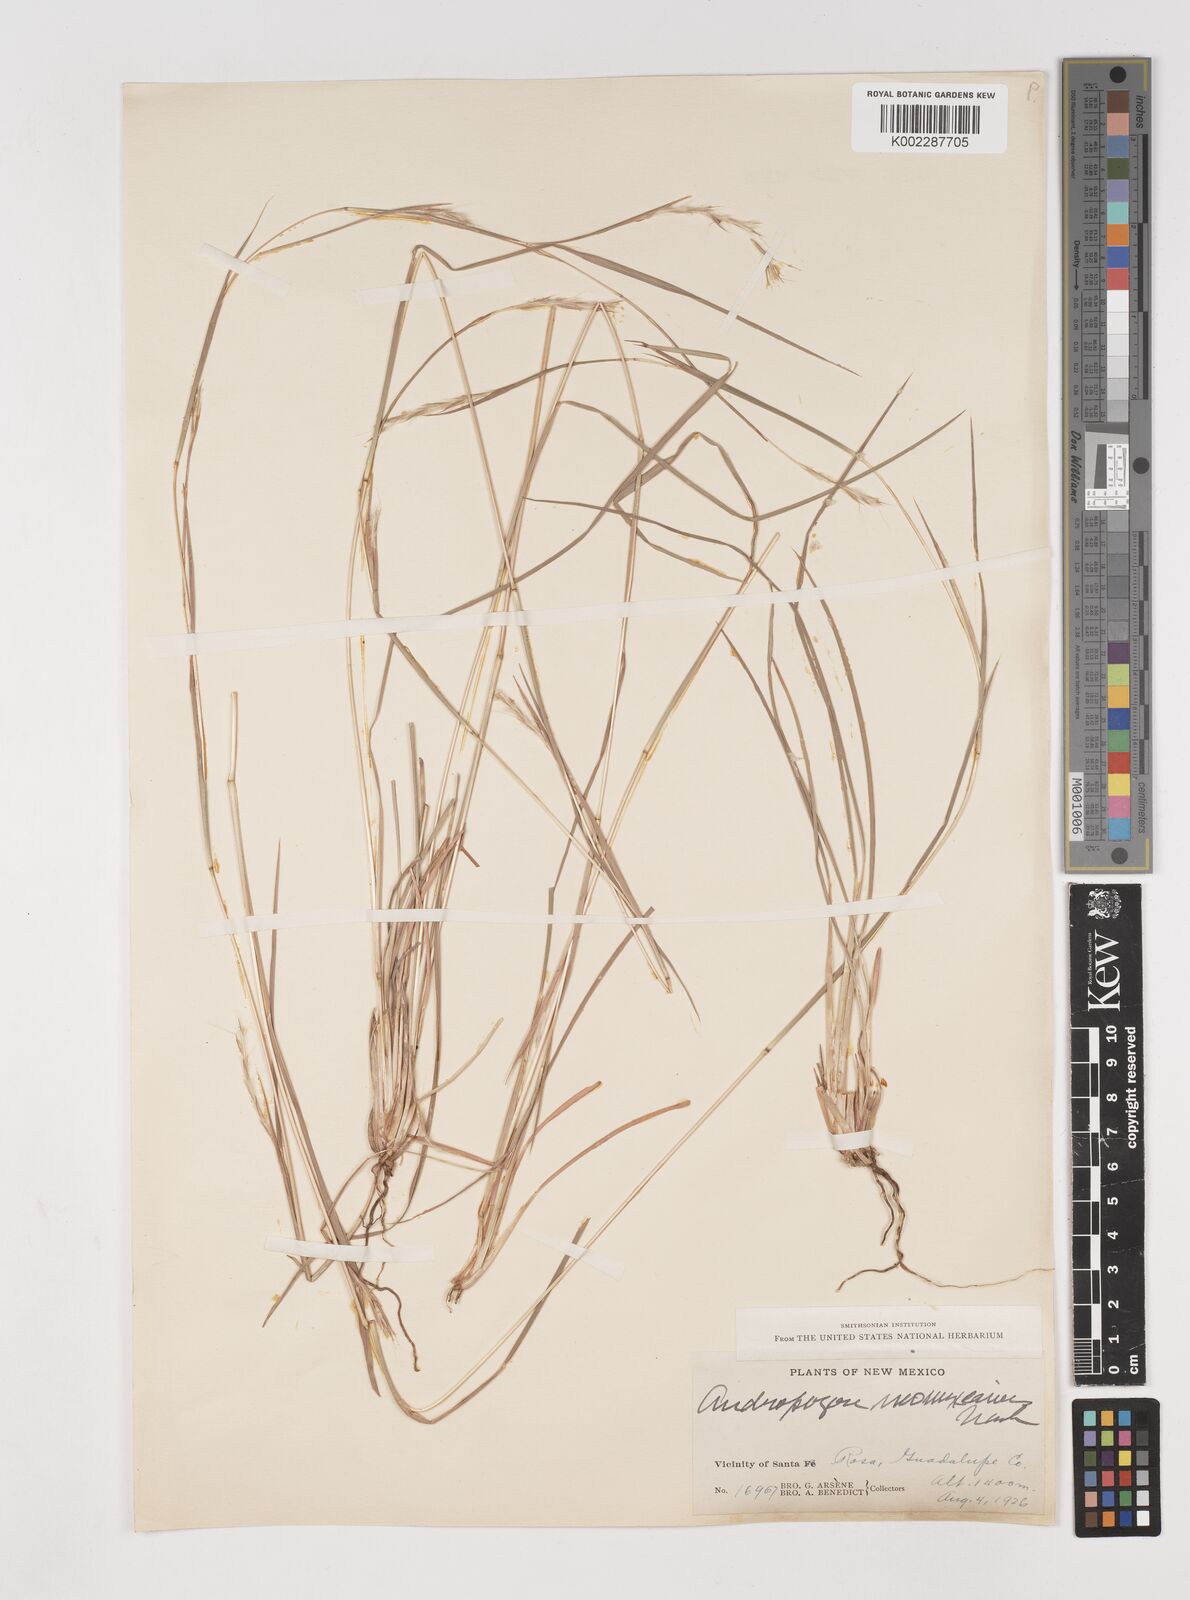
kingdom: Plantae
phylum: Tracheophyta
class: Liliopsida
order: Poales
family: Poaceae
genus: Schizachyrium
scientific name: Schizachyrium scoparium
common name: Little bluestem
